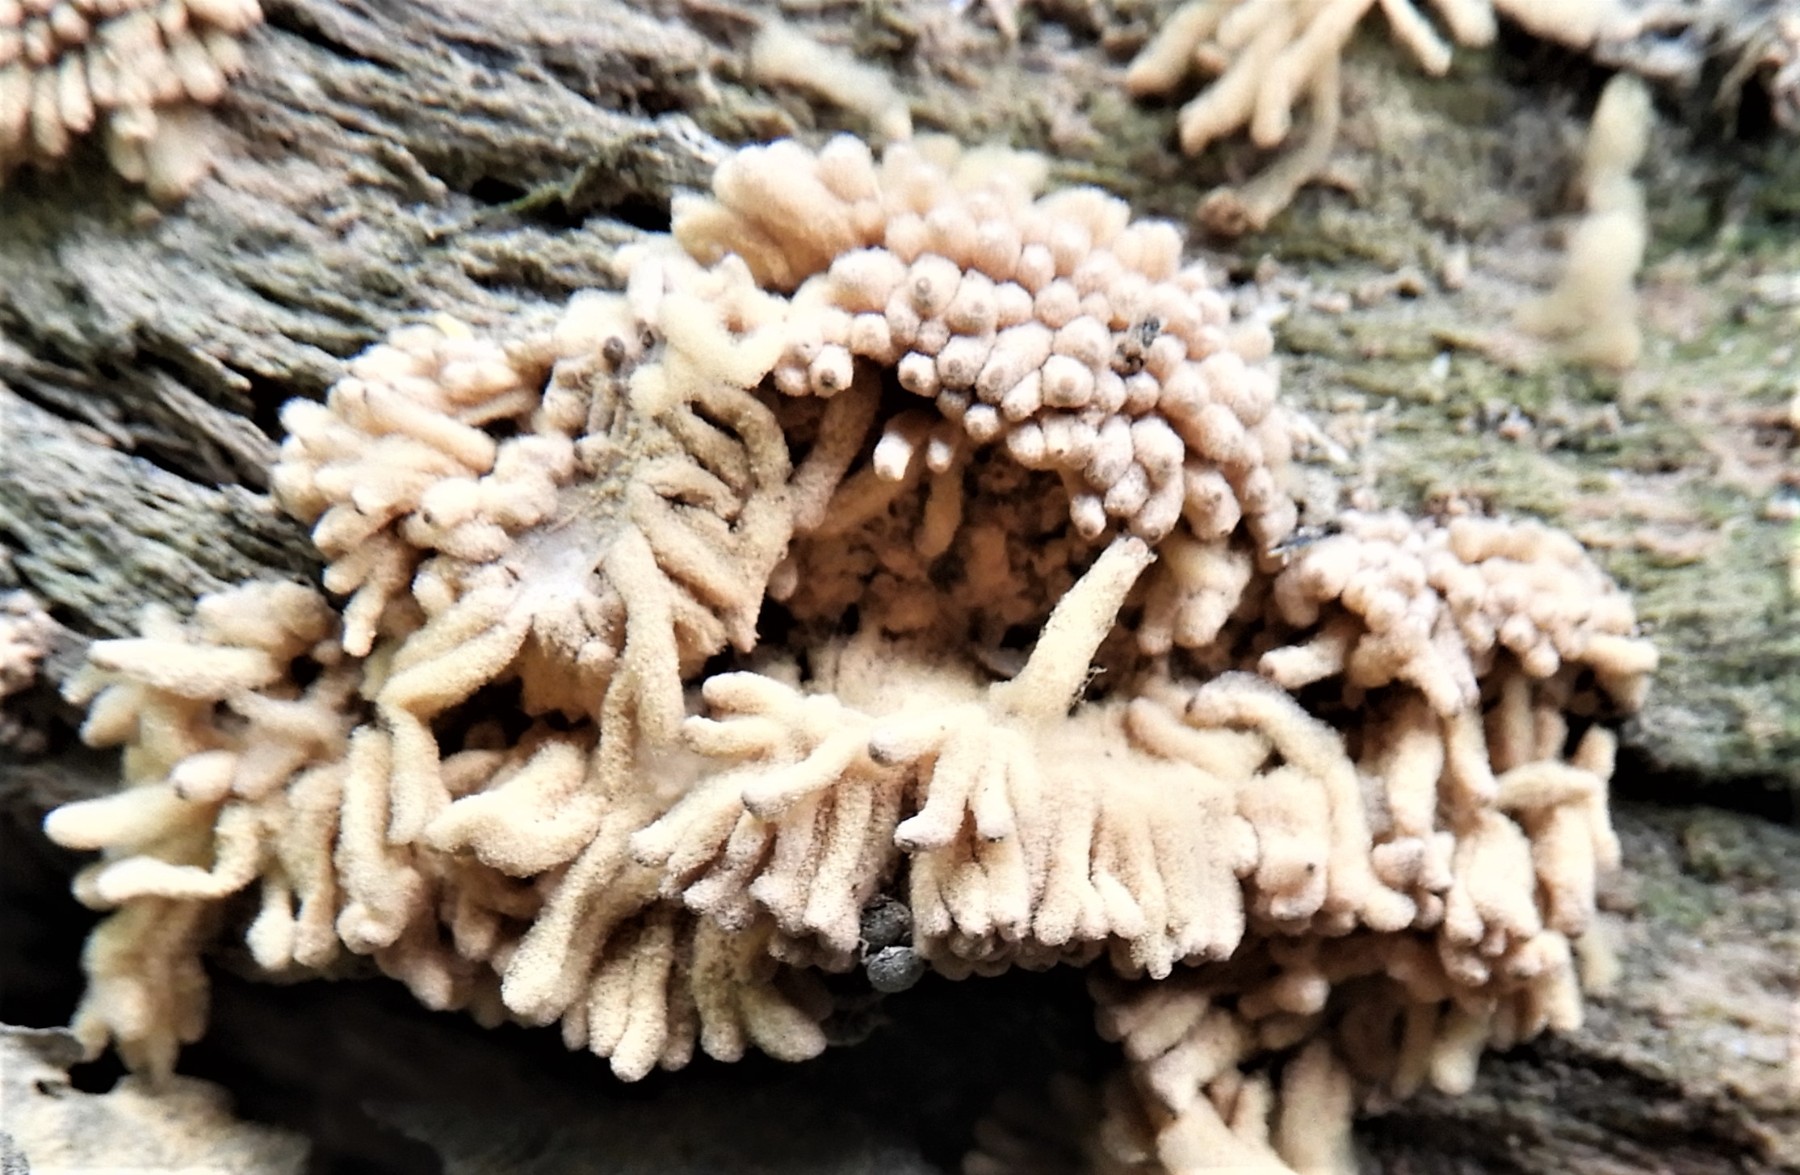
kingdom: Protozoa
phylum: Mycetozoa
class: Myxomycetes
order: Trichiales
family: Arcyriaceae
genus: Arcyria
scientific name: Arcyria obvelata
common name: okkergul skålsvøb
